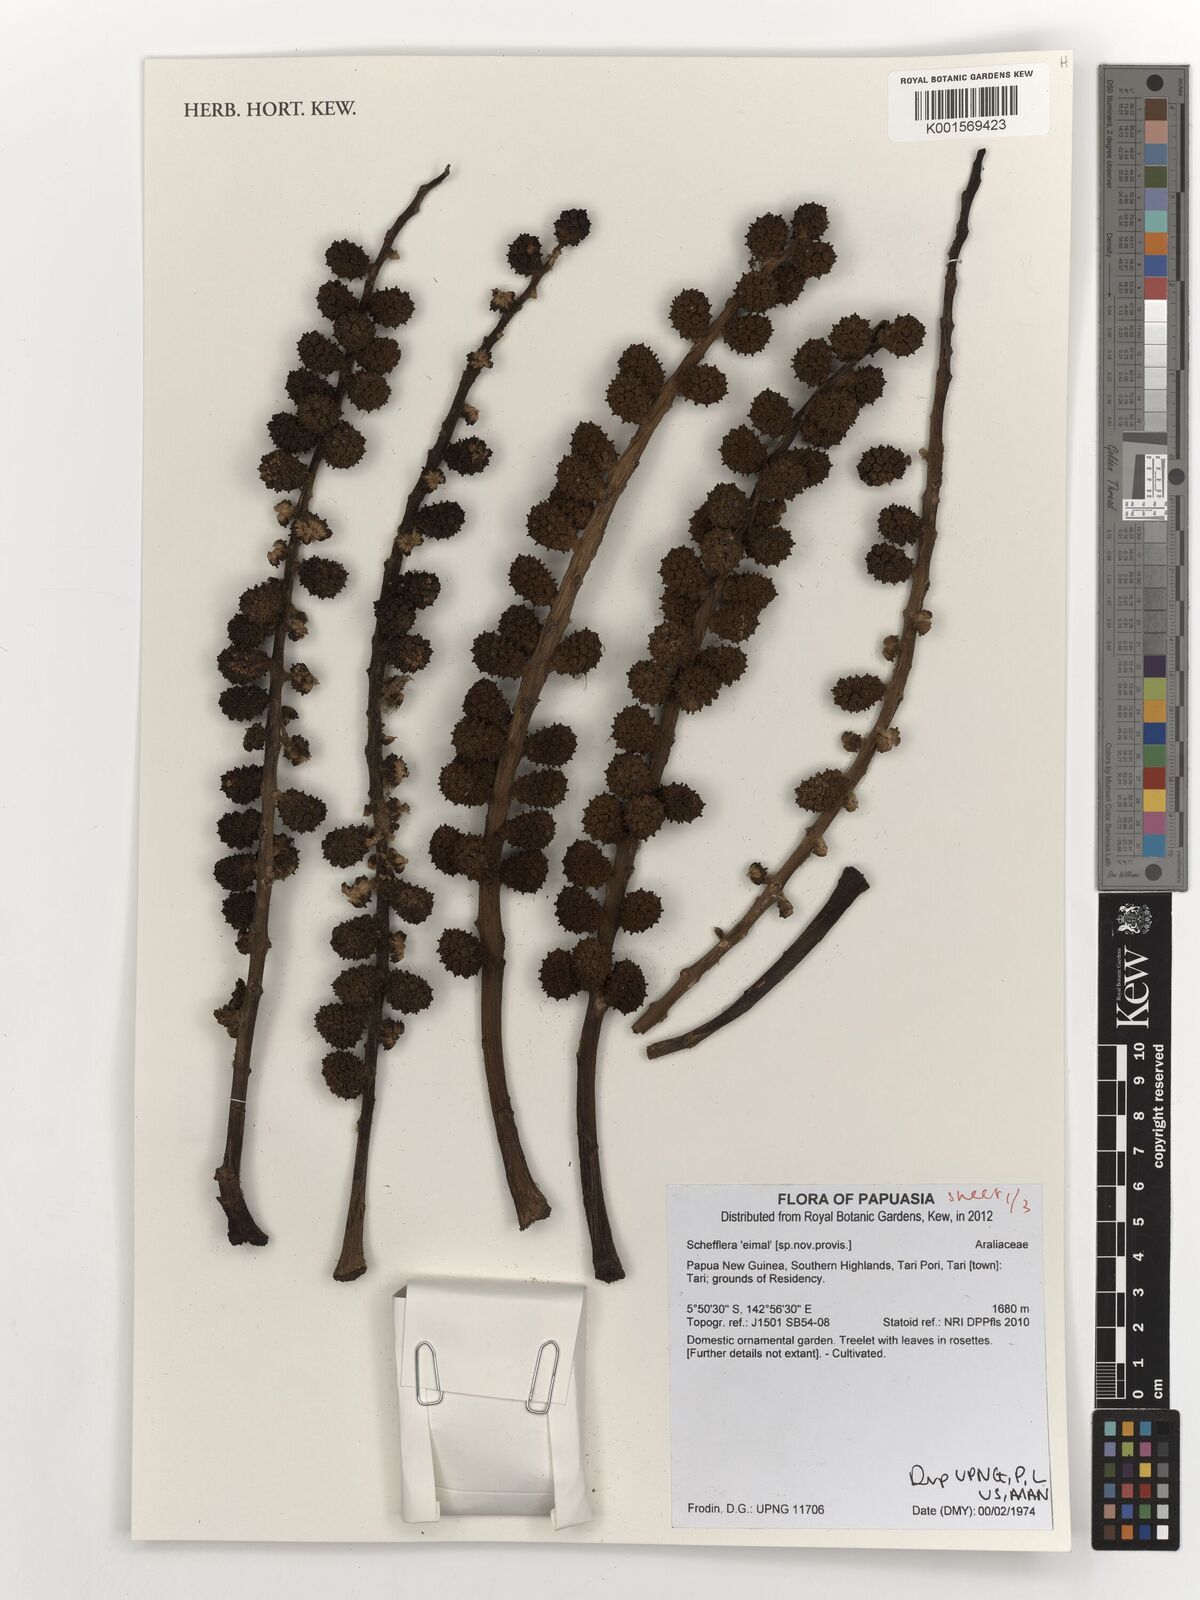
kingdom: Plantae
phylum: Tracheophyta
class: Magnoliopsida
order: Apiales
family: Araliaceae
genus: Schefflera
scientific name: Schefflera
